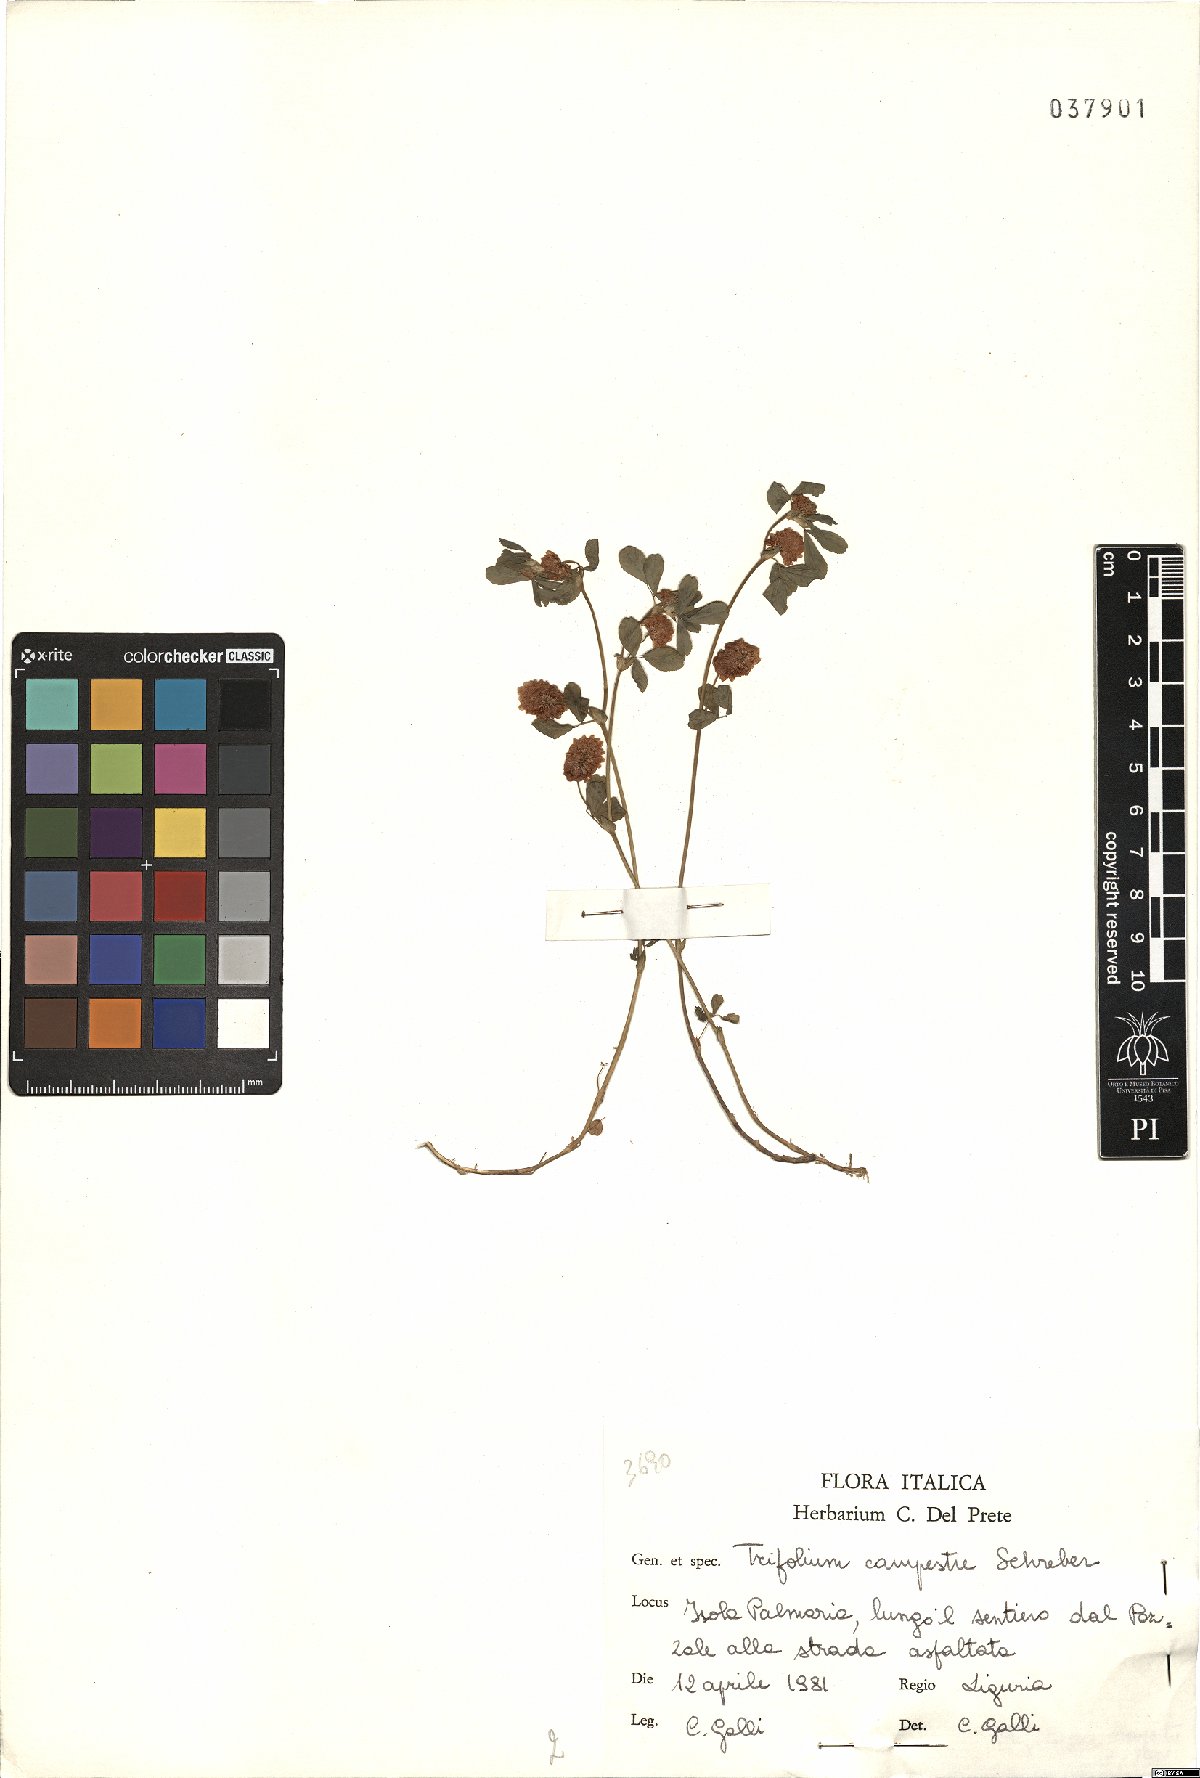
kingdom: Plantae
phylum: Tracheophyta
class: Magnoliopsida
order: Fabales
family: Fabaceae
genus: Trifolium
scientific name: Trifolium campestre
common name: Field clover
